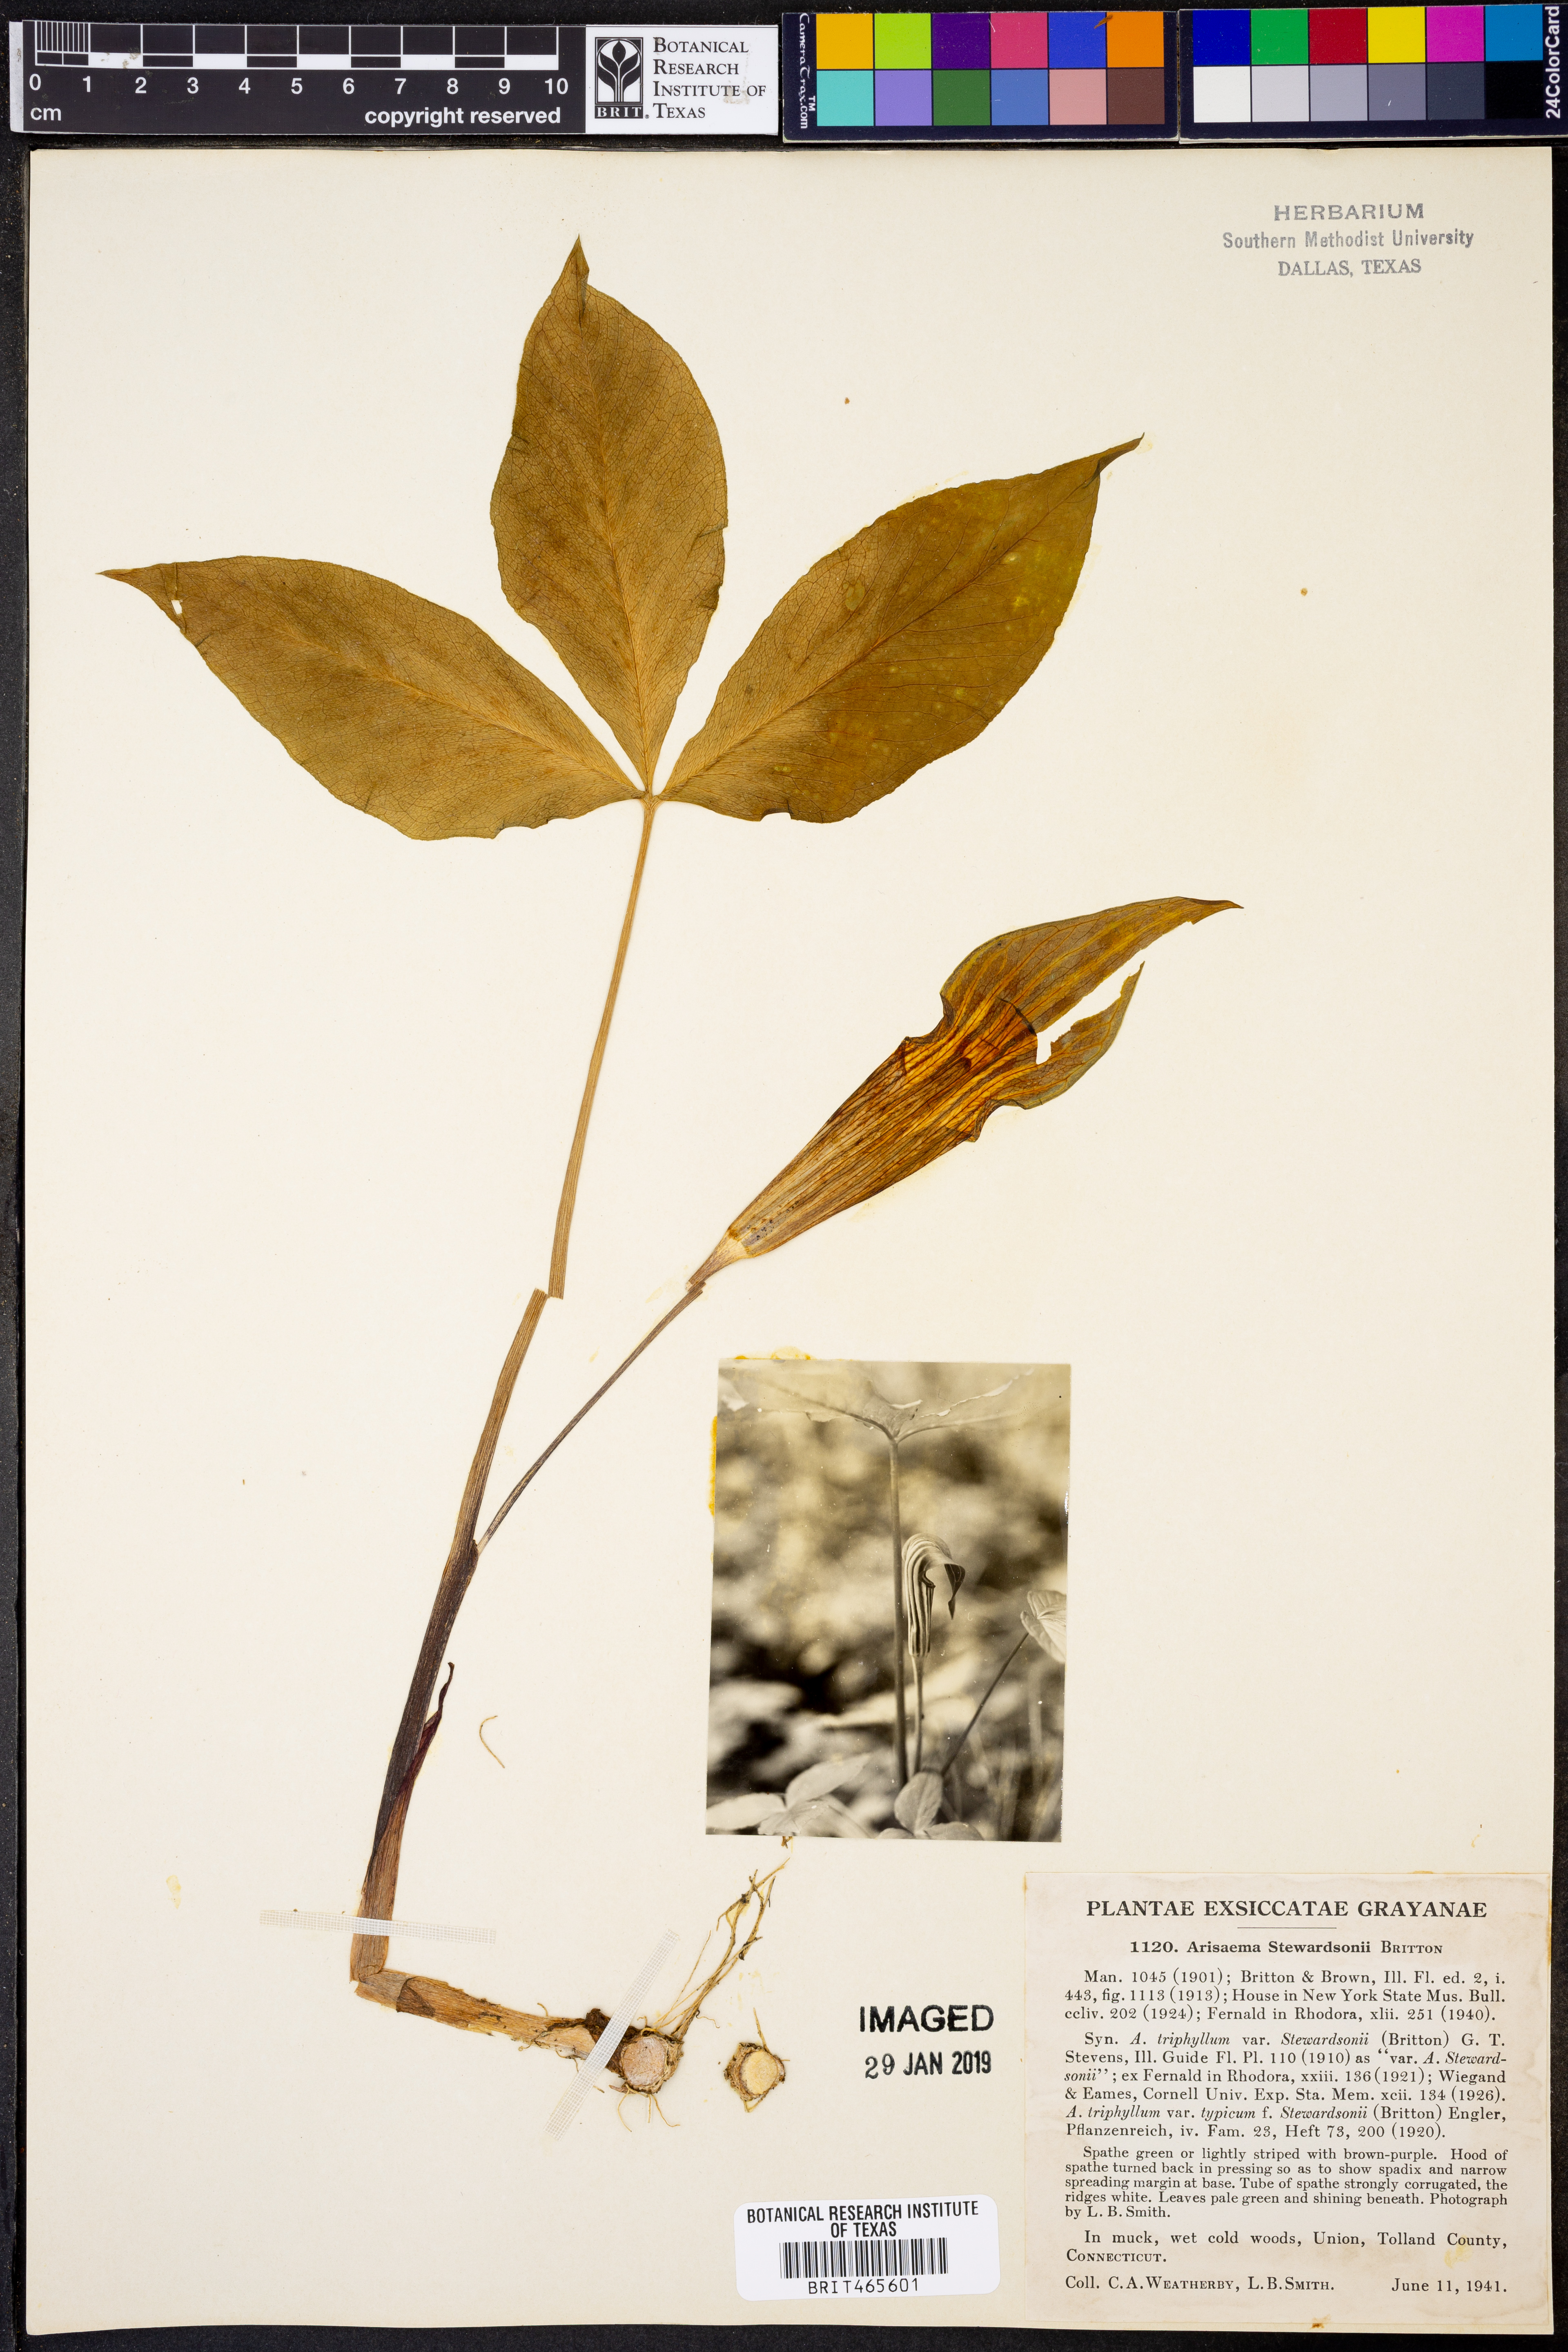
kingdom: Plantae
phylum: Tracheophyta
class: Liliopsida
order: Alismatales
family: Araceae
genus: Arisaema
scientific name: Arisaema stewardsonii
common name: Swamp jack-in-the-pulpit
